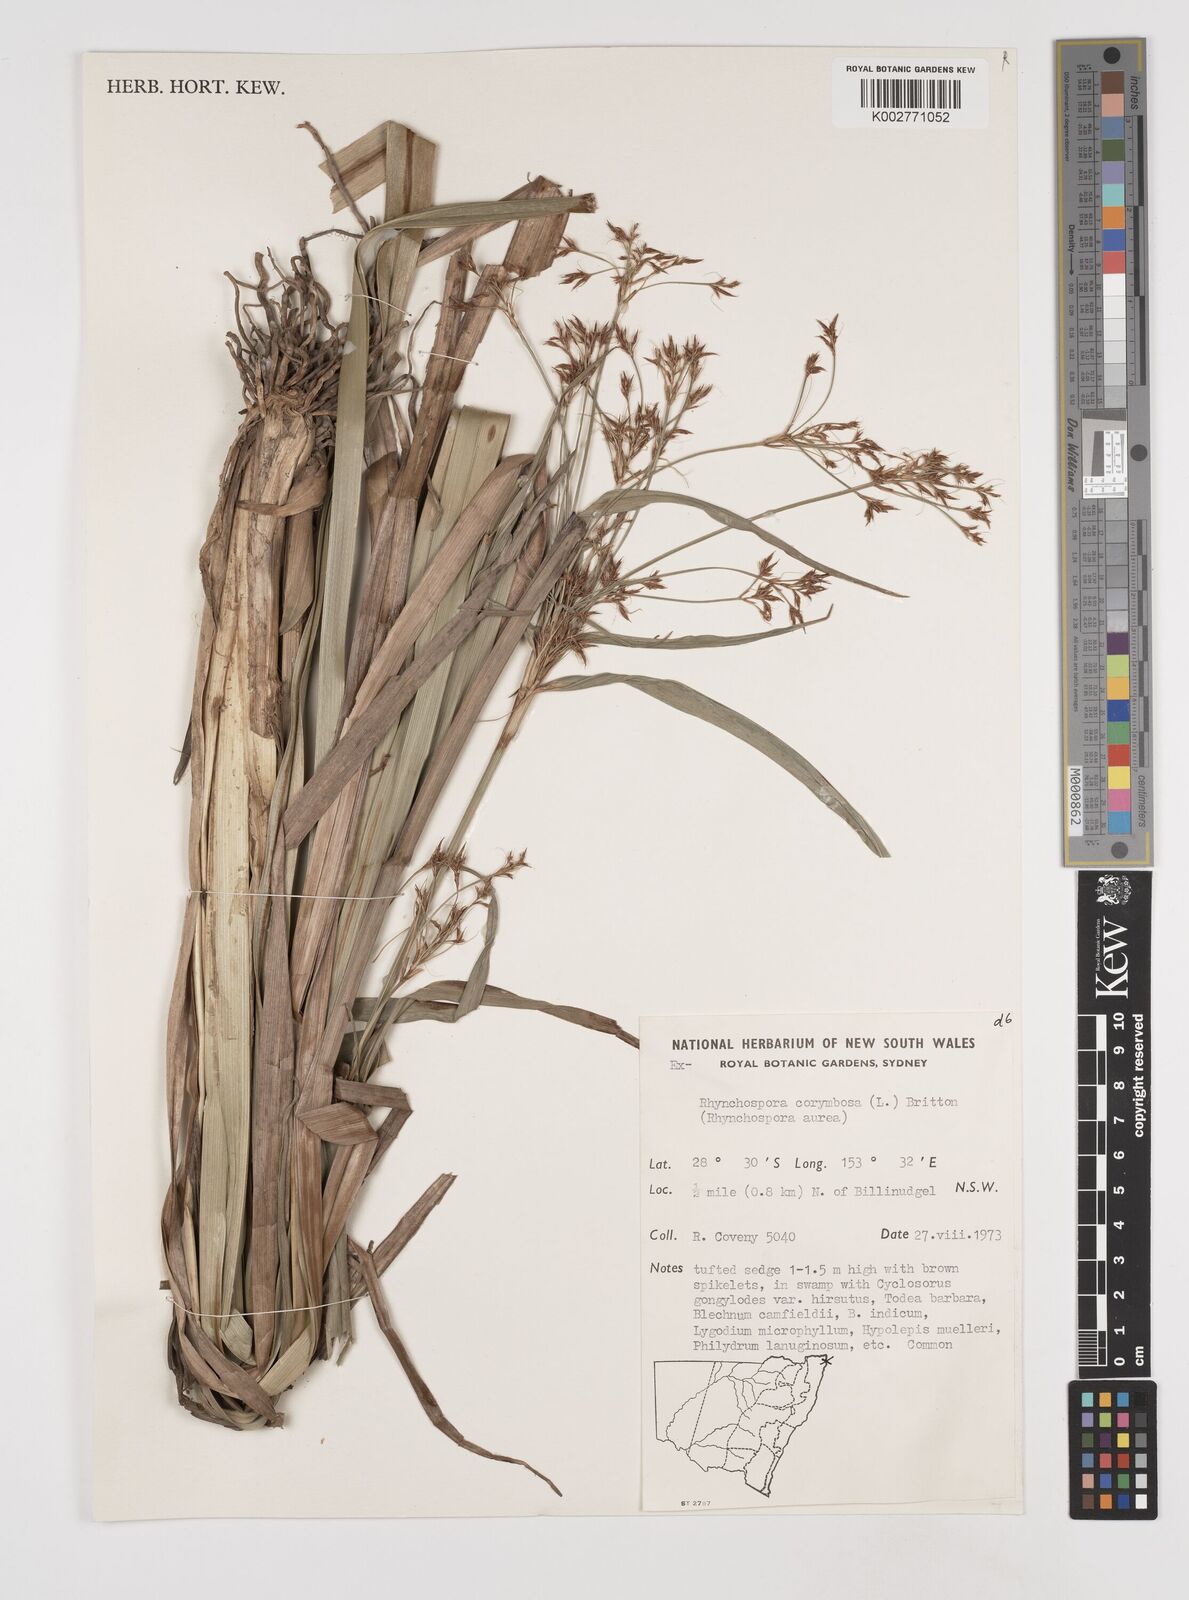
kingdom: Plantae
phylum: Tracheophyta
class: Liliopsida
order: Poales
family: Cyperaceae
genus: Rhynchospora
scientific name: Rhynchospora corymbosa
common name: Golden beak sedge
